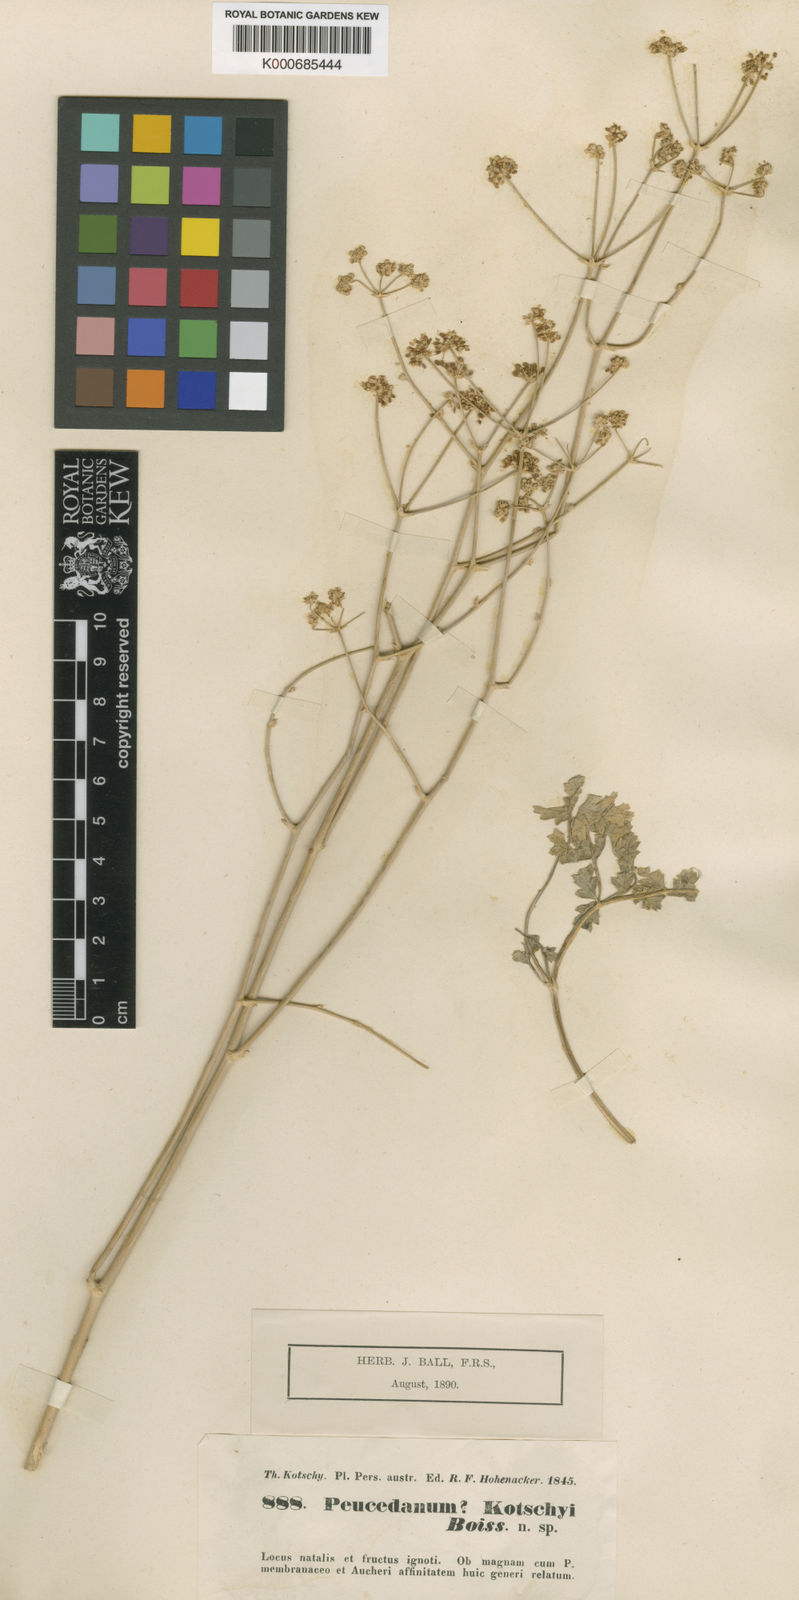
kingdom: Plantae
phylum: Tracheophyta
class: Magnoliopsida
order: Apiales
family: Apiaceae
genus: Zeravschania
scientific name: Zeravschania aucheri
